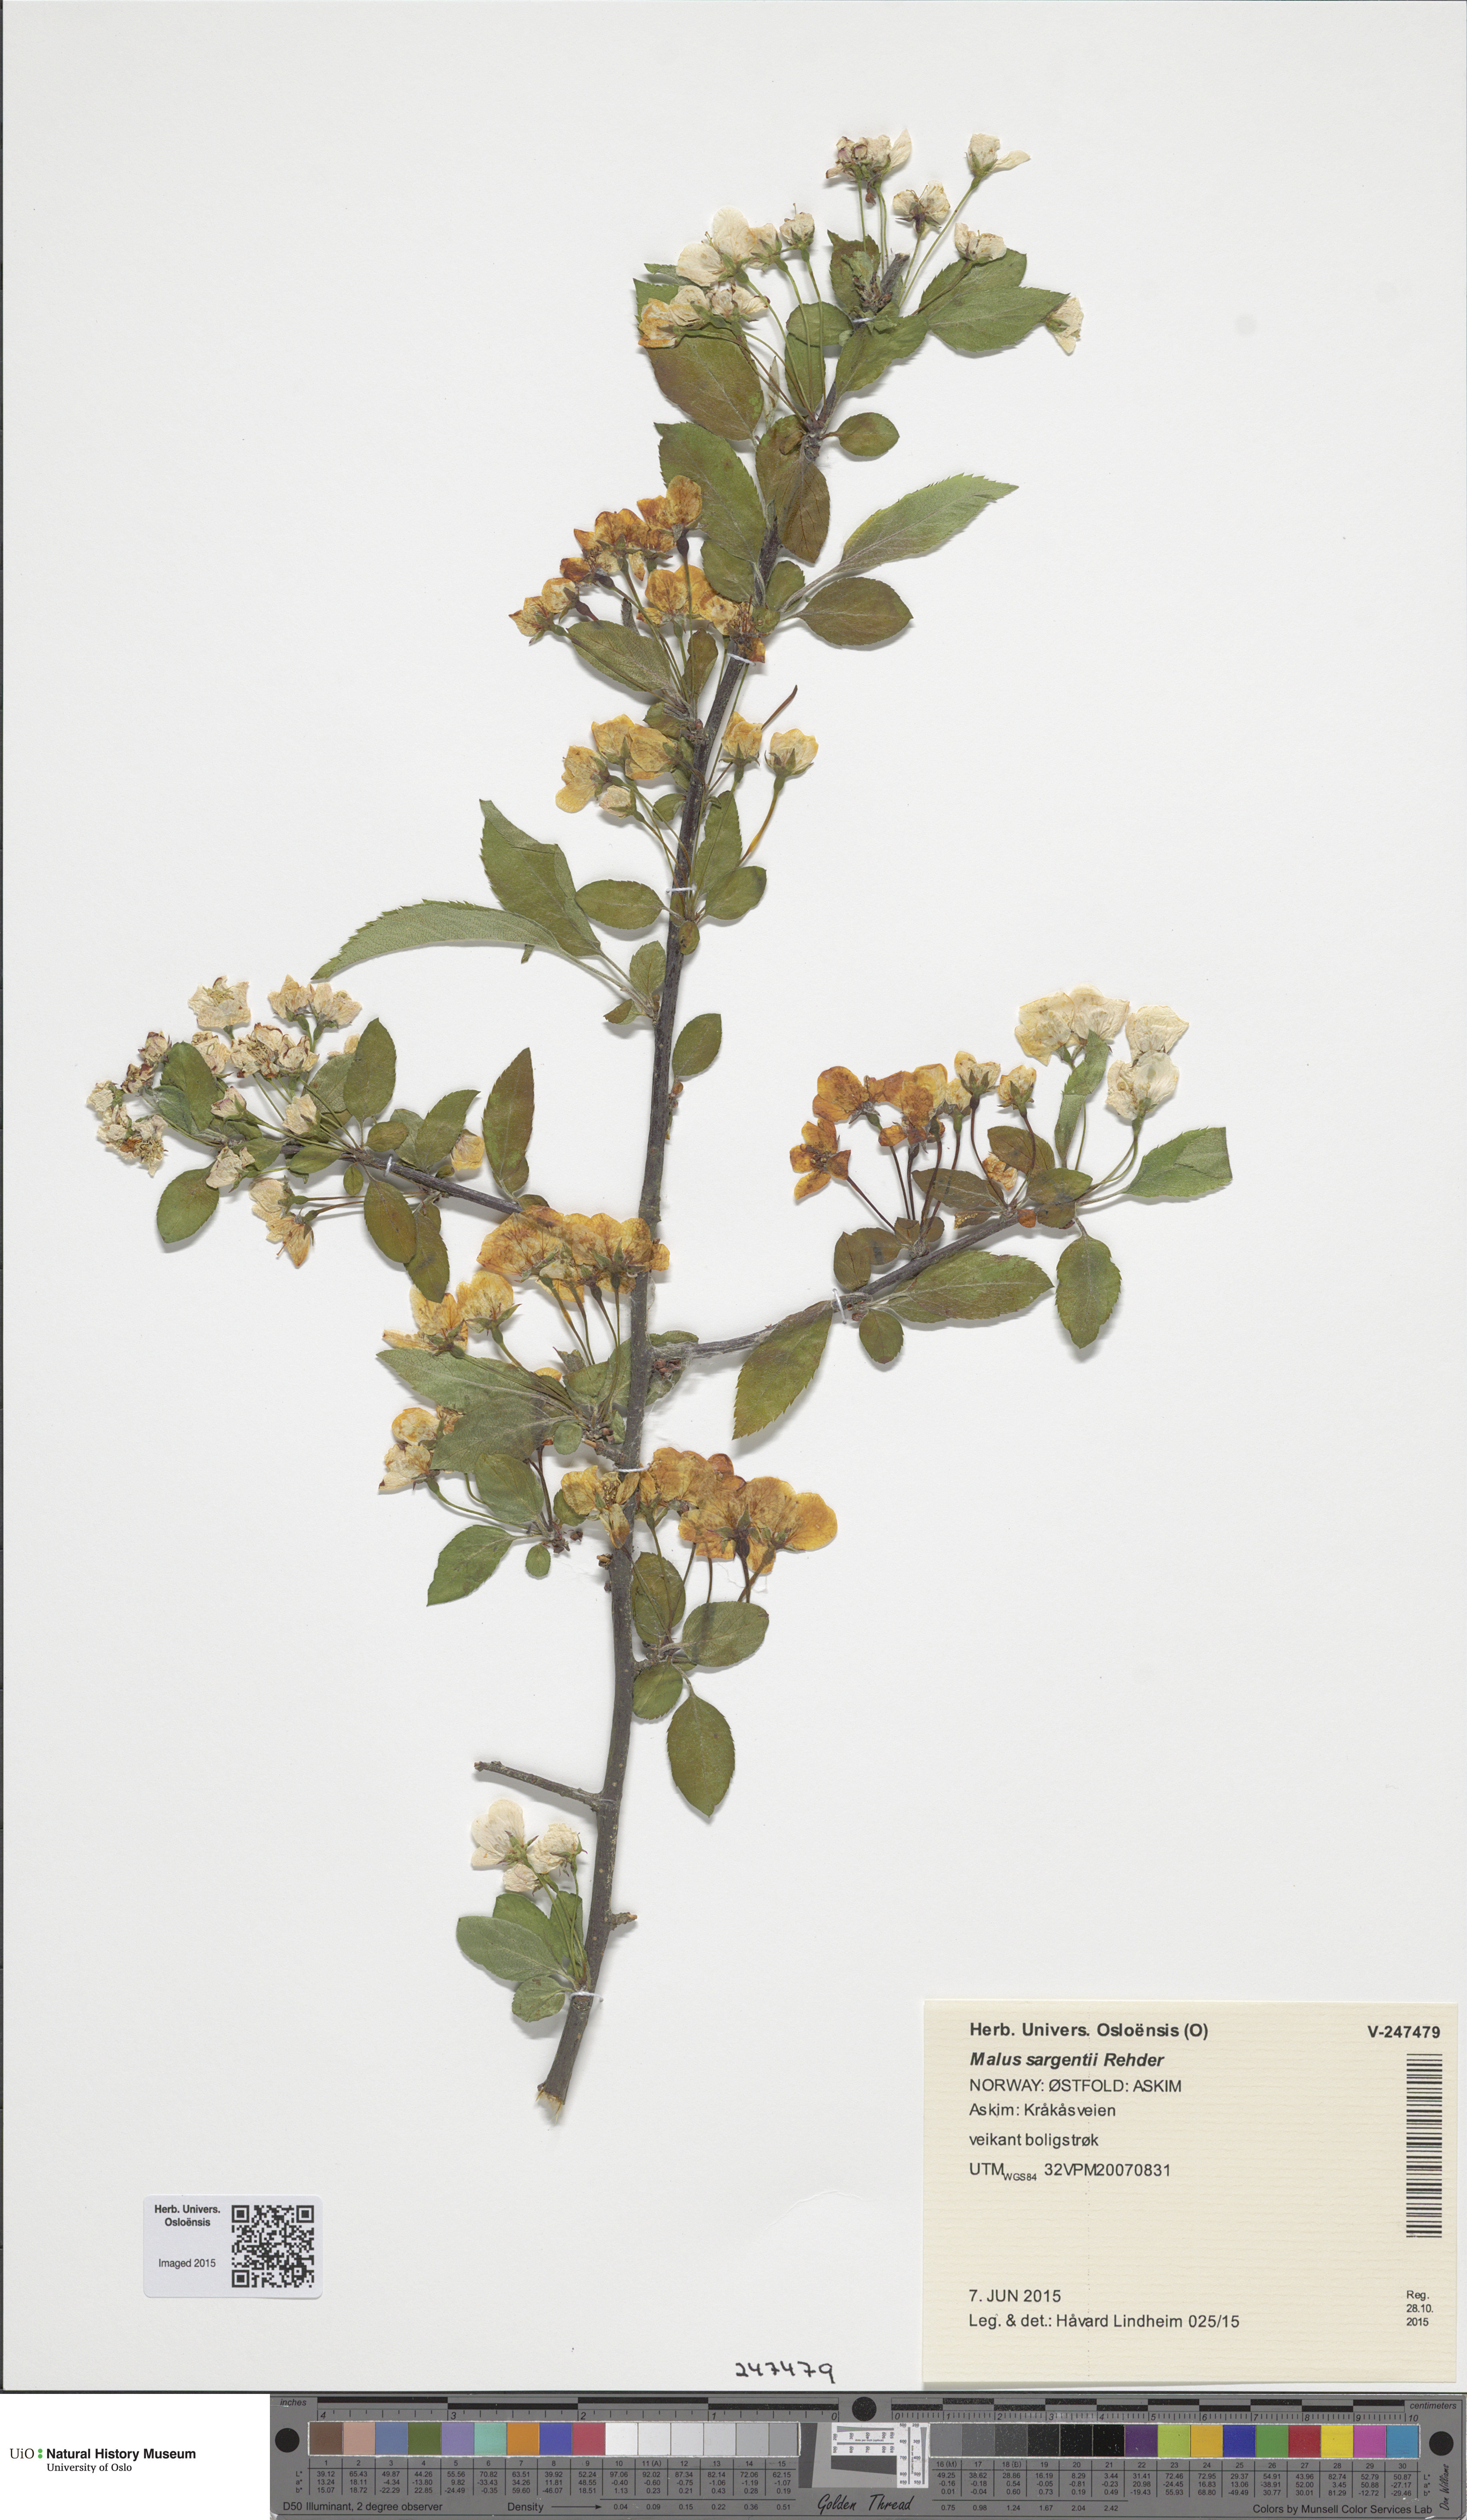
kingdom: Plantae
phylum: Tracheophyta
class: Magnoliopsida
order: Rosales
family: Rosaceae
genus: Malus
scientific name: Malus toringo
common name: Japanese crabapple
